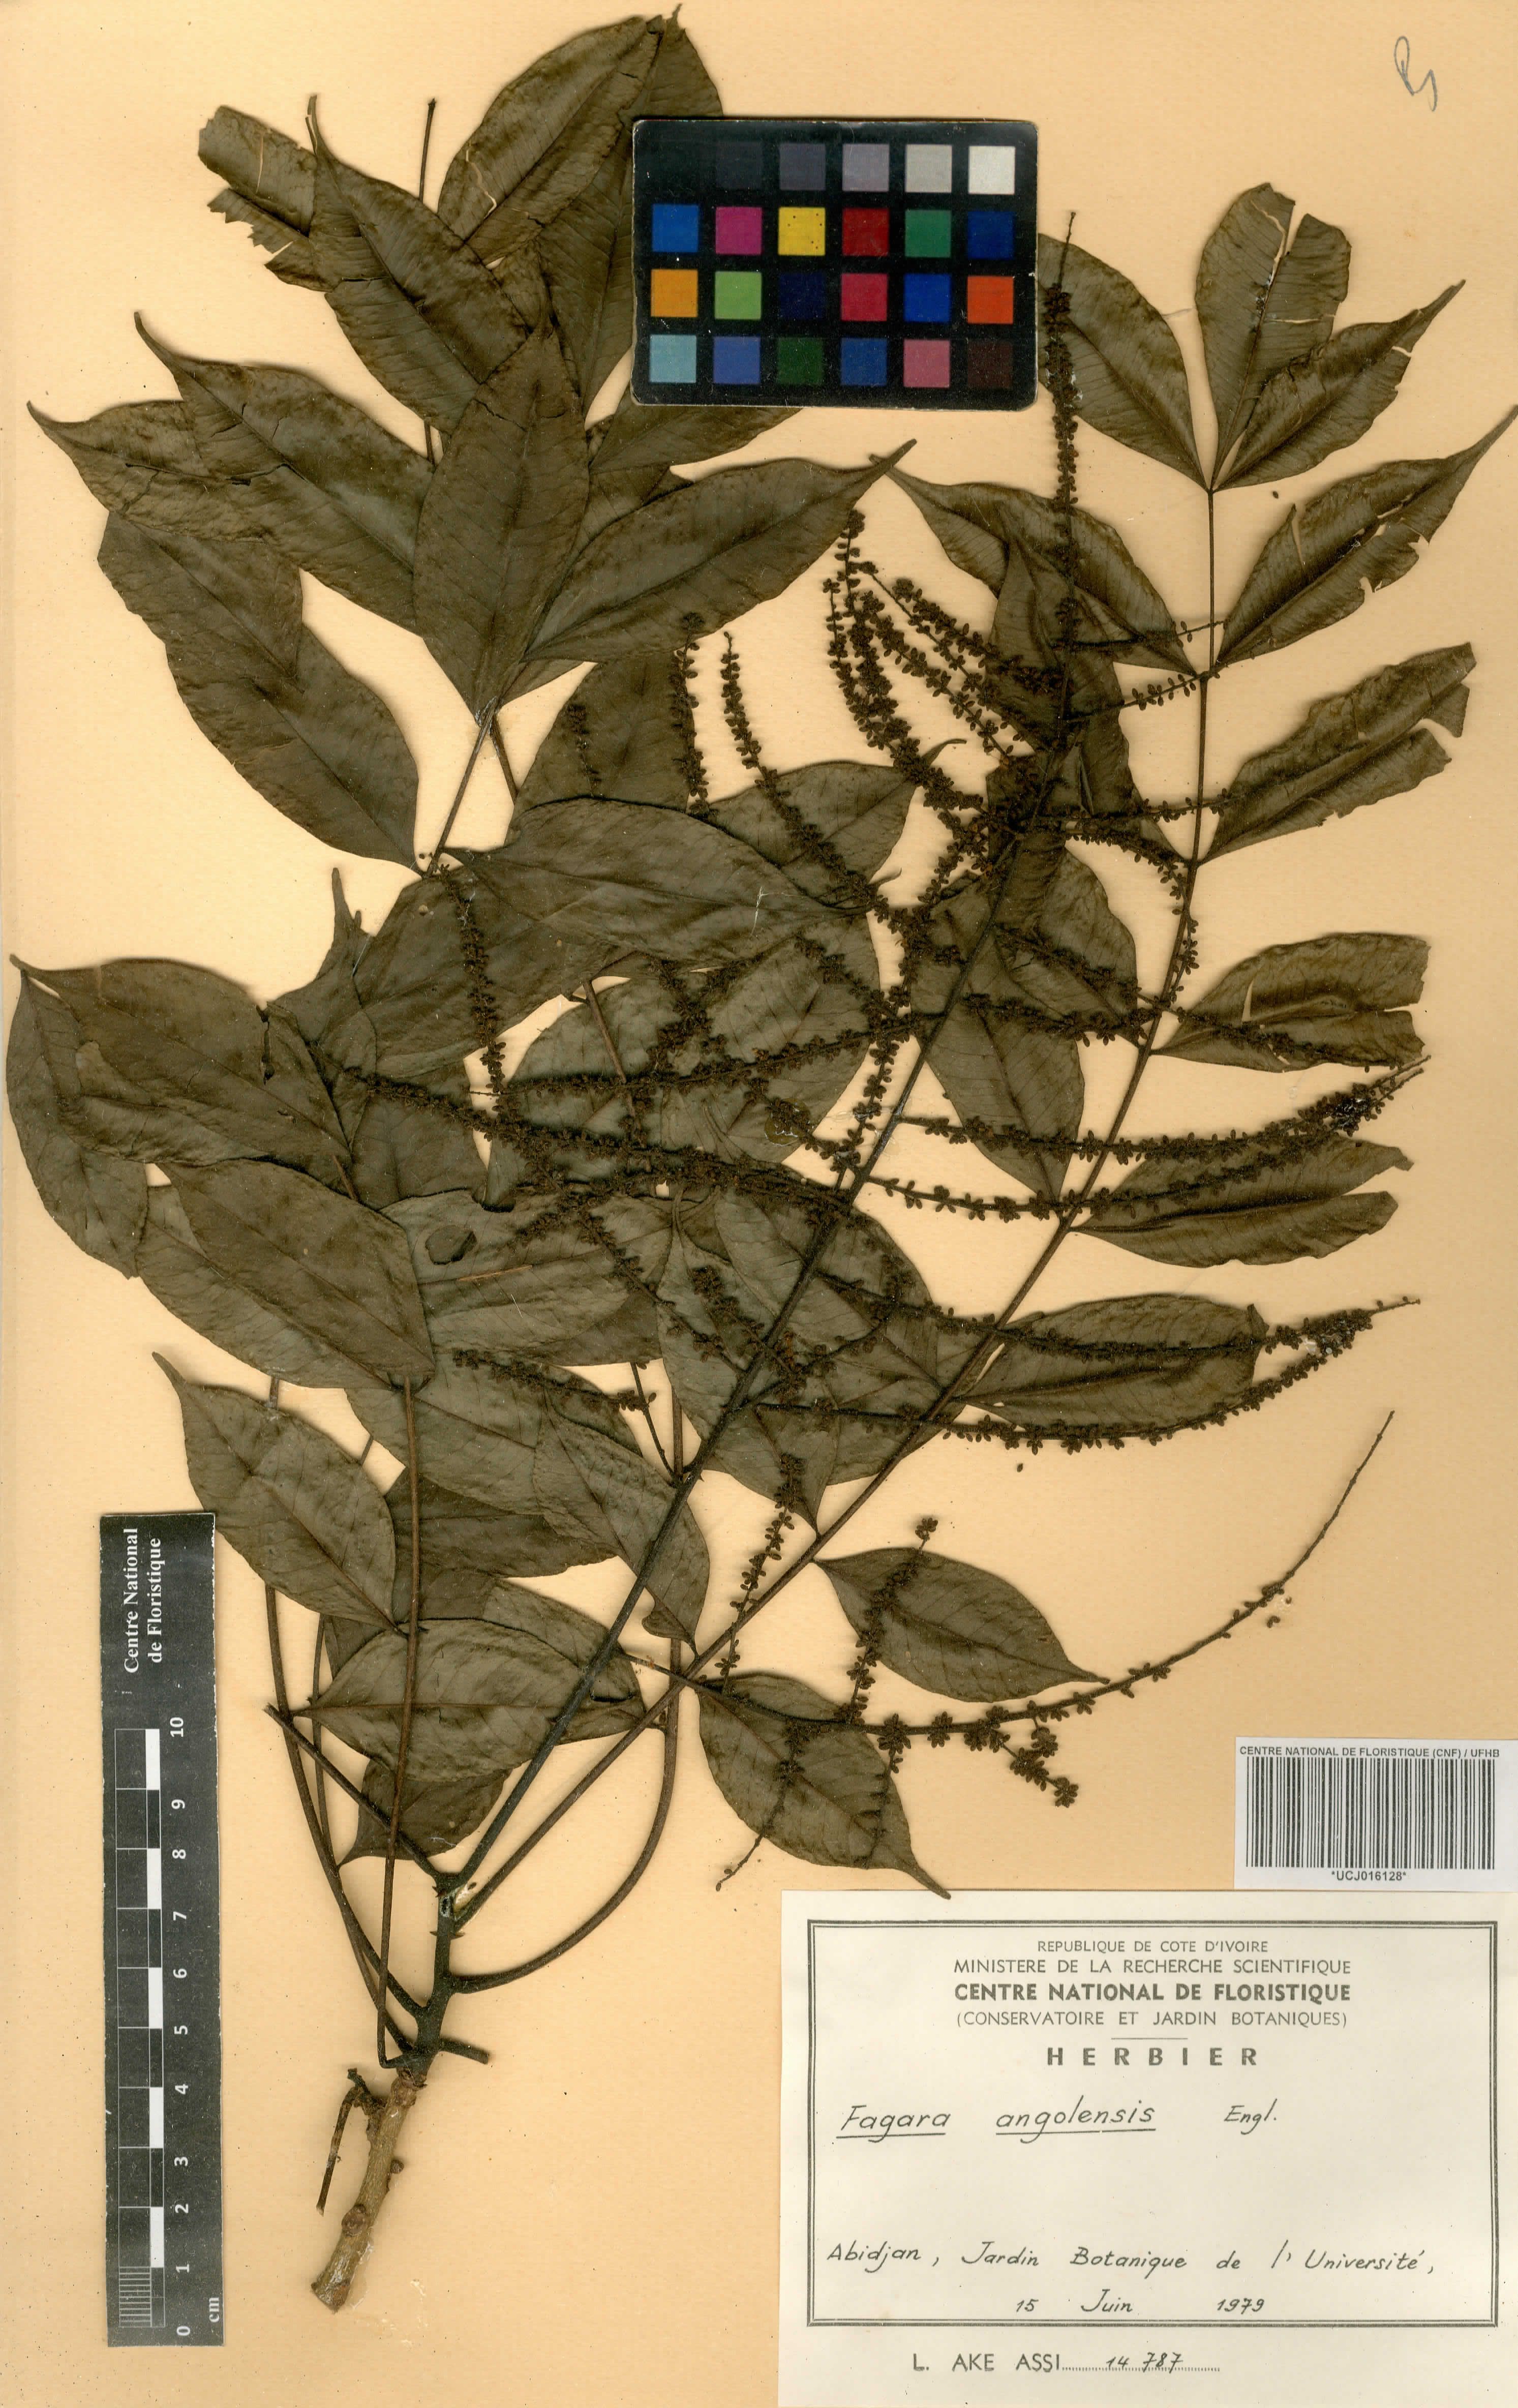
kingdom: Plantae
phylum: Tracheophyta
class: Magnoliopsida
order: Sapindales
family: Rutaceae
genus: Zanthoxylum
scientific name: Zanthoxylum leprieurii
